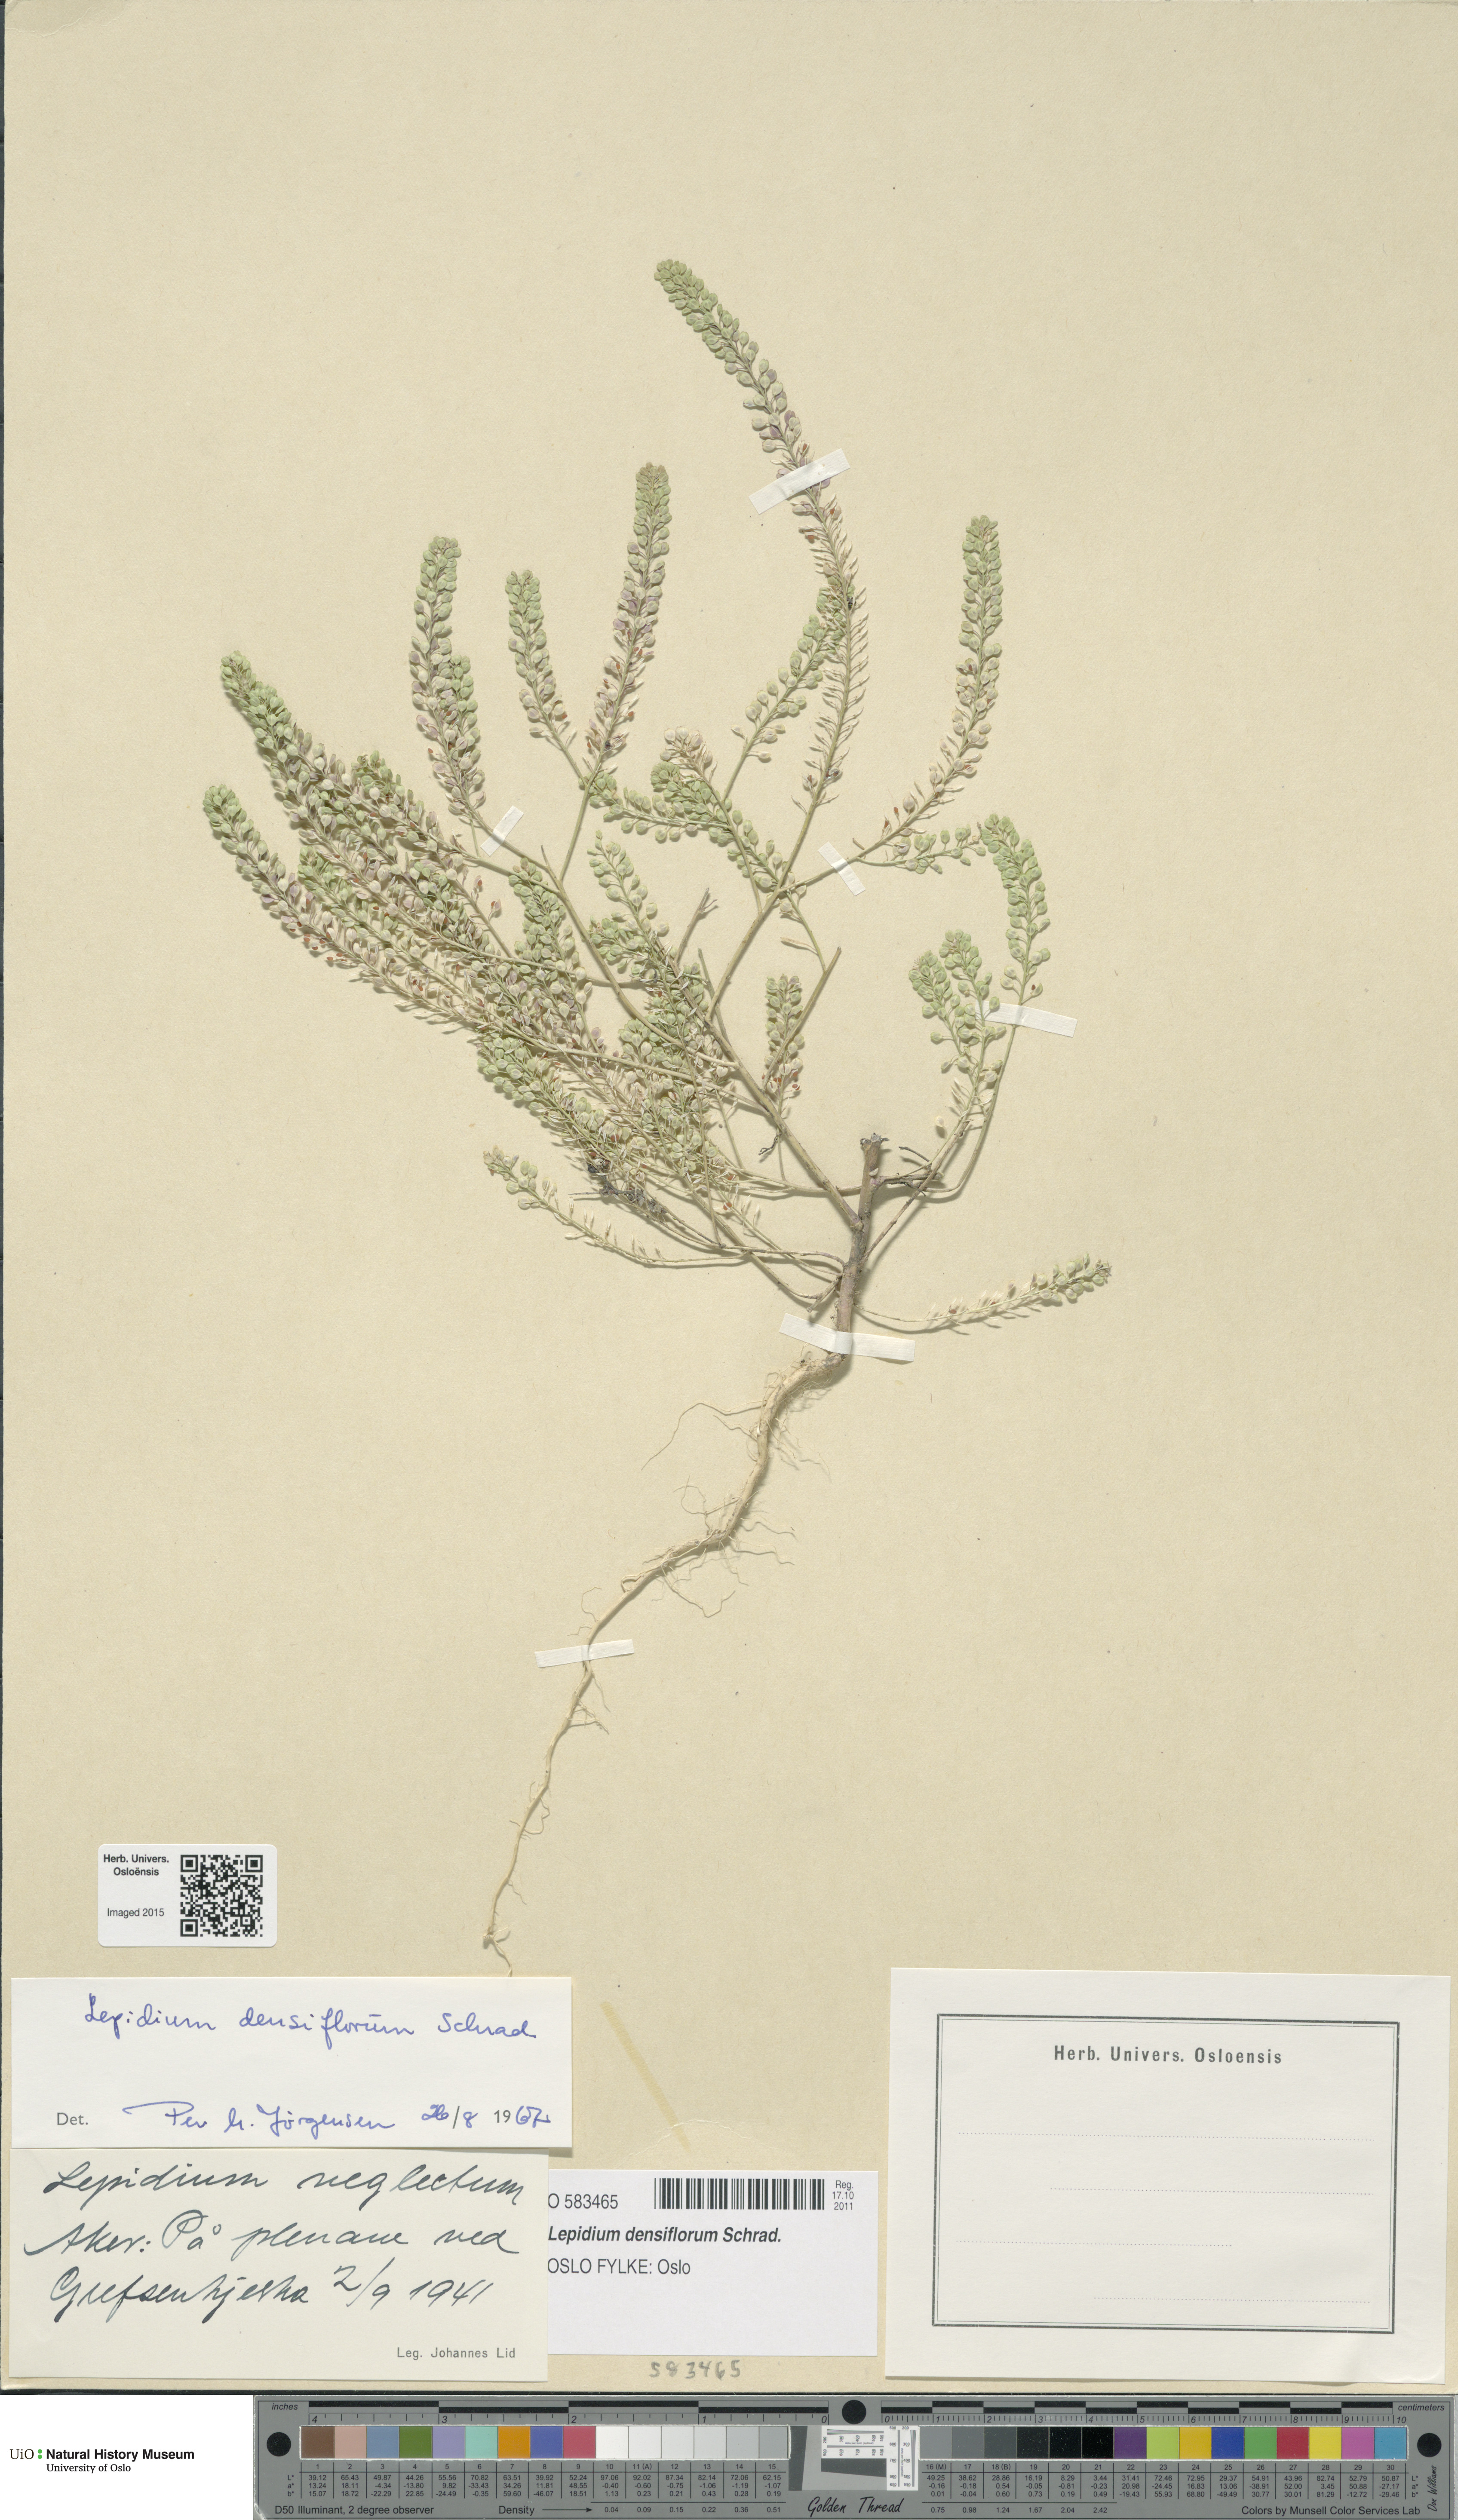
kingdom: Plantae
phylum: Tracheophyta
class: Magnoliopsida
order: Brassicales
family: Brassicaceae
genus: Lepidium
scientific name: Lepidium densiflorum
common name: Miner's pepperwort
